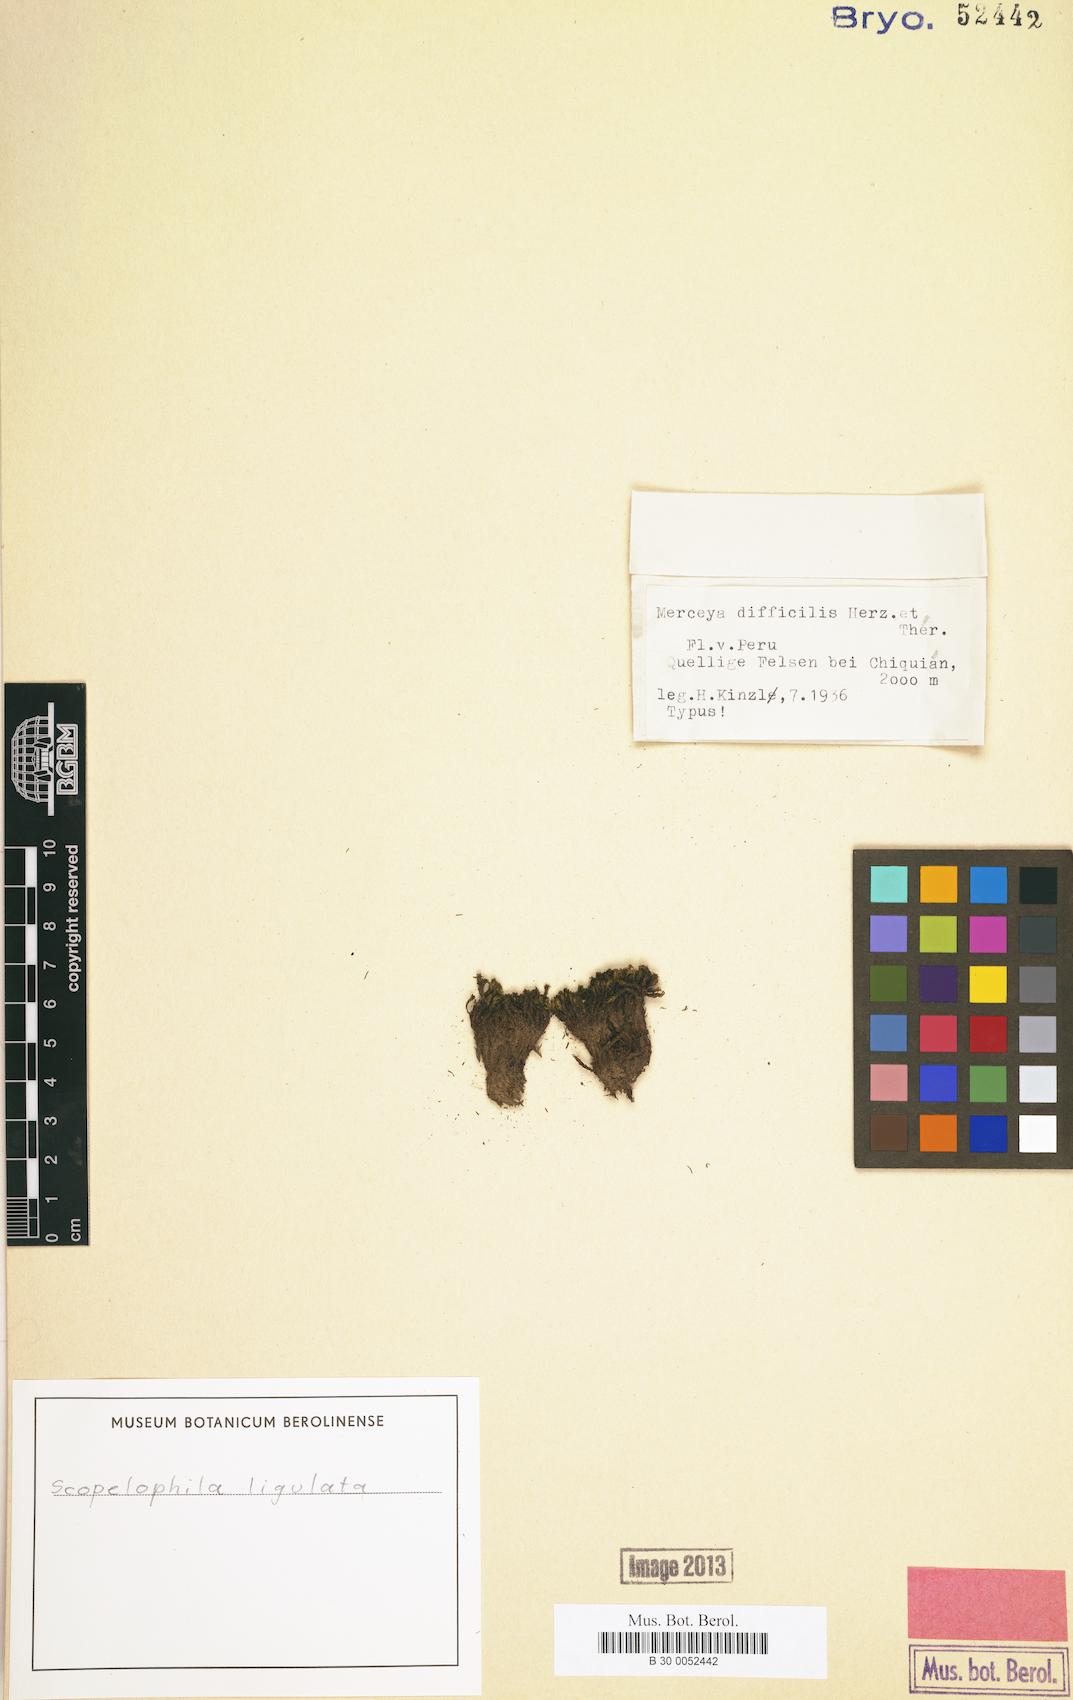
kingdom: Plantae
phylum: Bryophyta
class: Bryopsida
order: Pottiales
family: Pottiaceae
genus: Scopelophila
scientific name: Scopelophila ligulata
